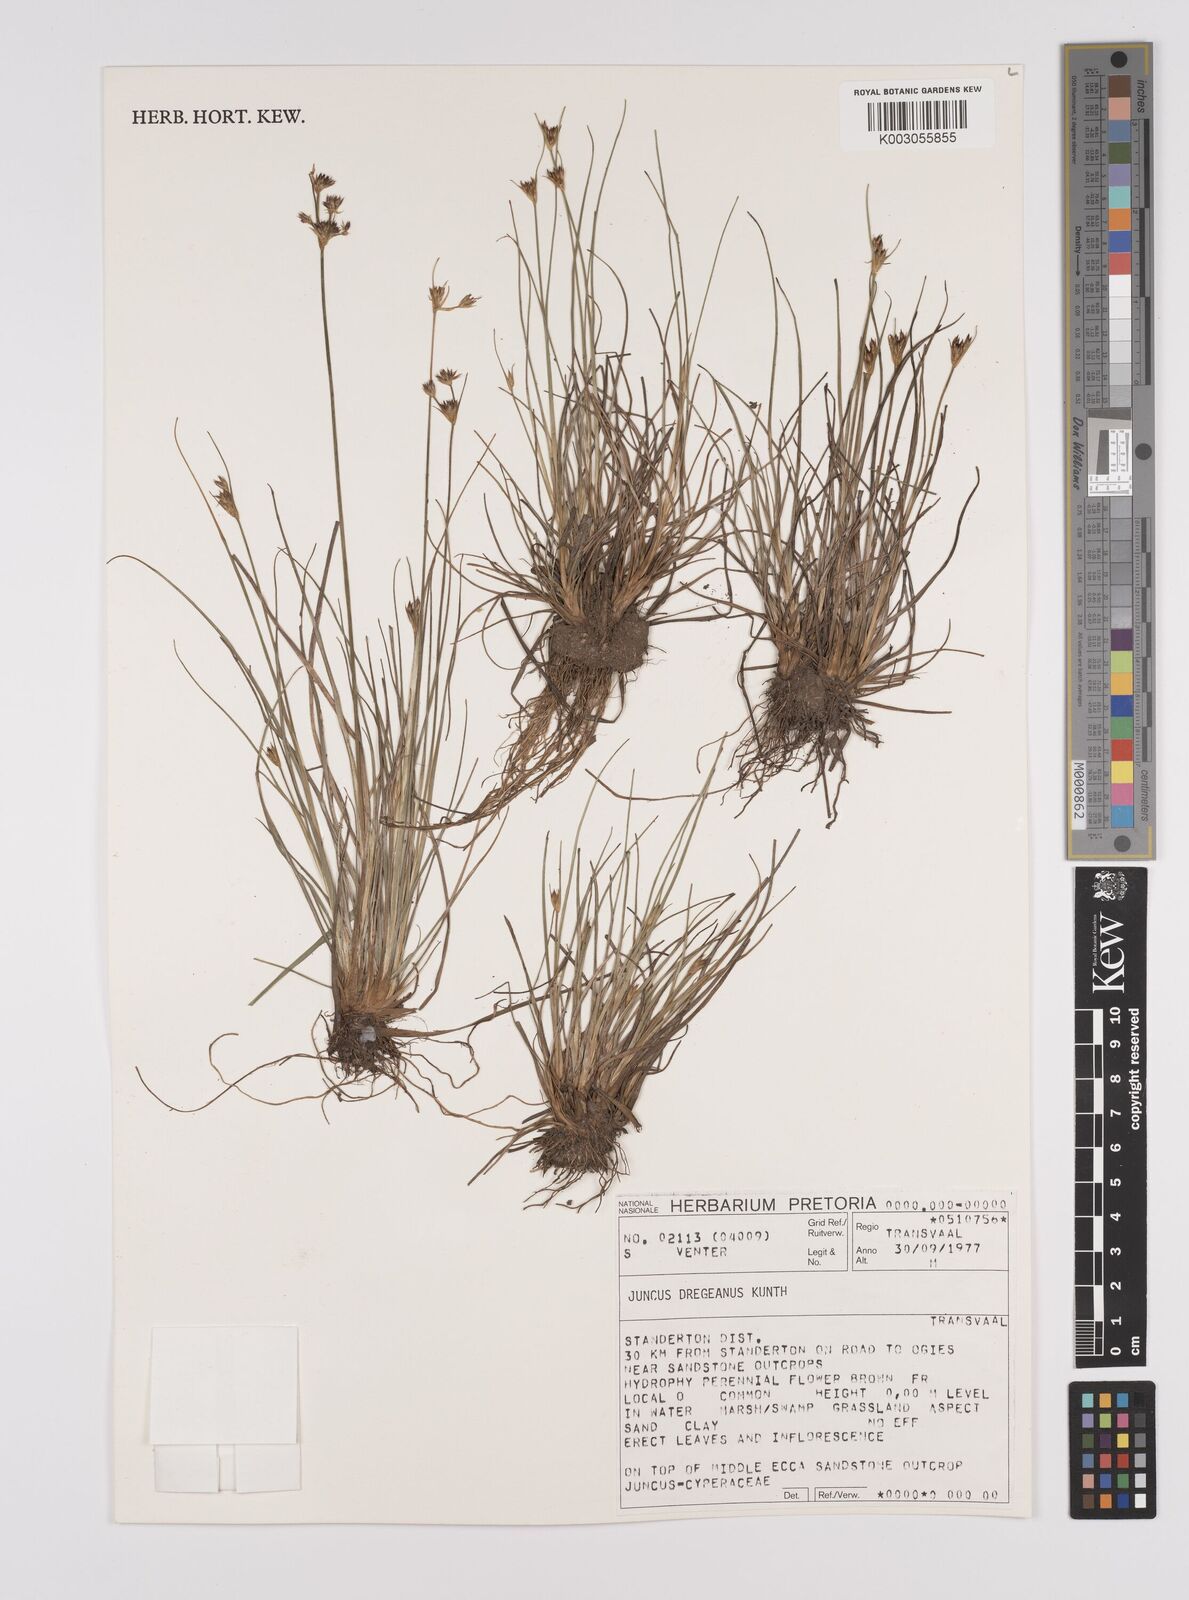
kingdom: Plantae
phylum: Tracheophyta
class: Liliopsida
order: Poales
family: Juncaceae
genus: Juncus
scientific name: Juncus dregeanus
